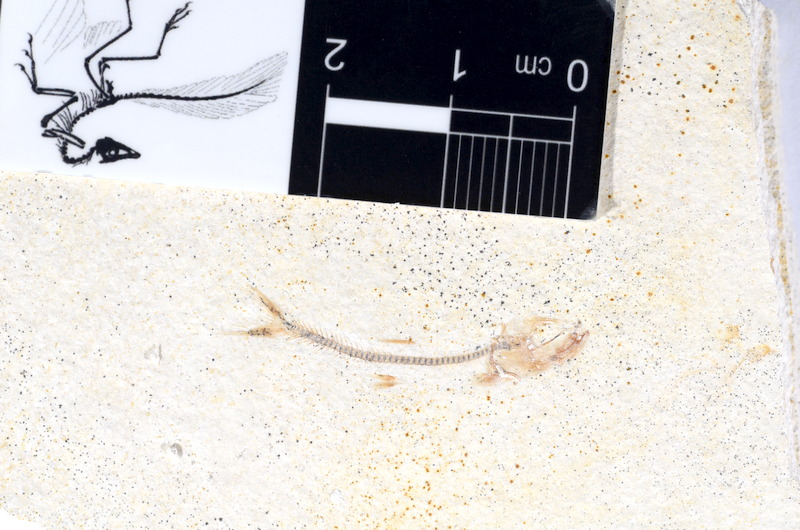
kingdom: Animalia
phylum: Chordata
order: Salmoniformes
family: Orthogonikleithridae
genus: Orthogonikleithrus
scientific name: Orthogonikleithrus hoelli
